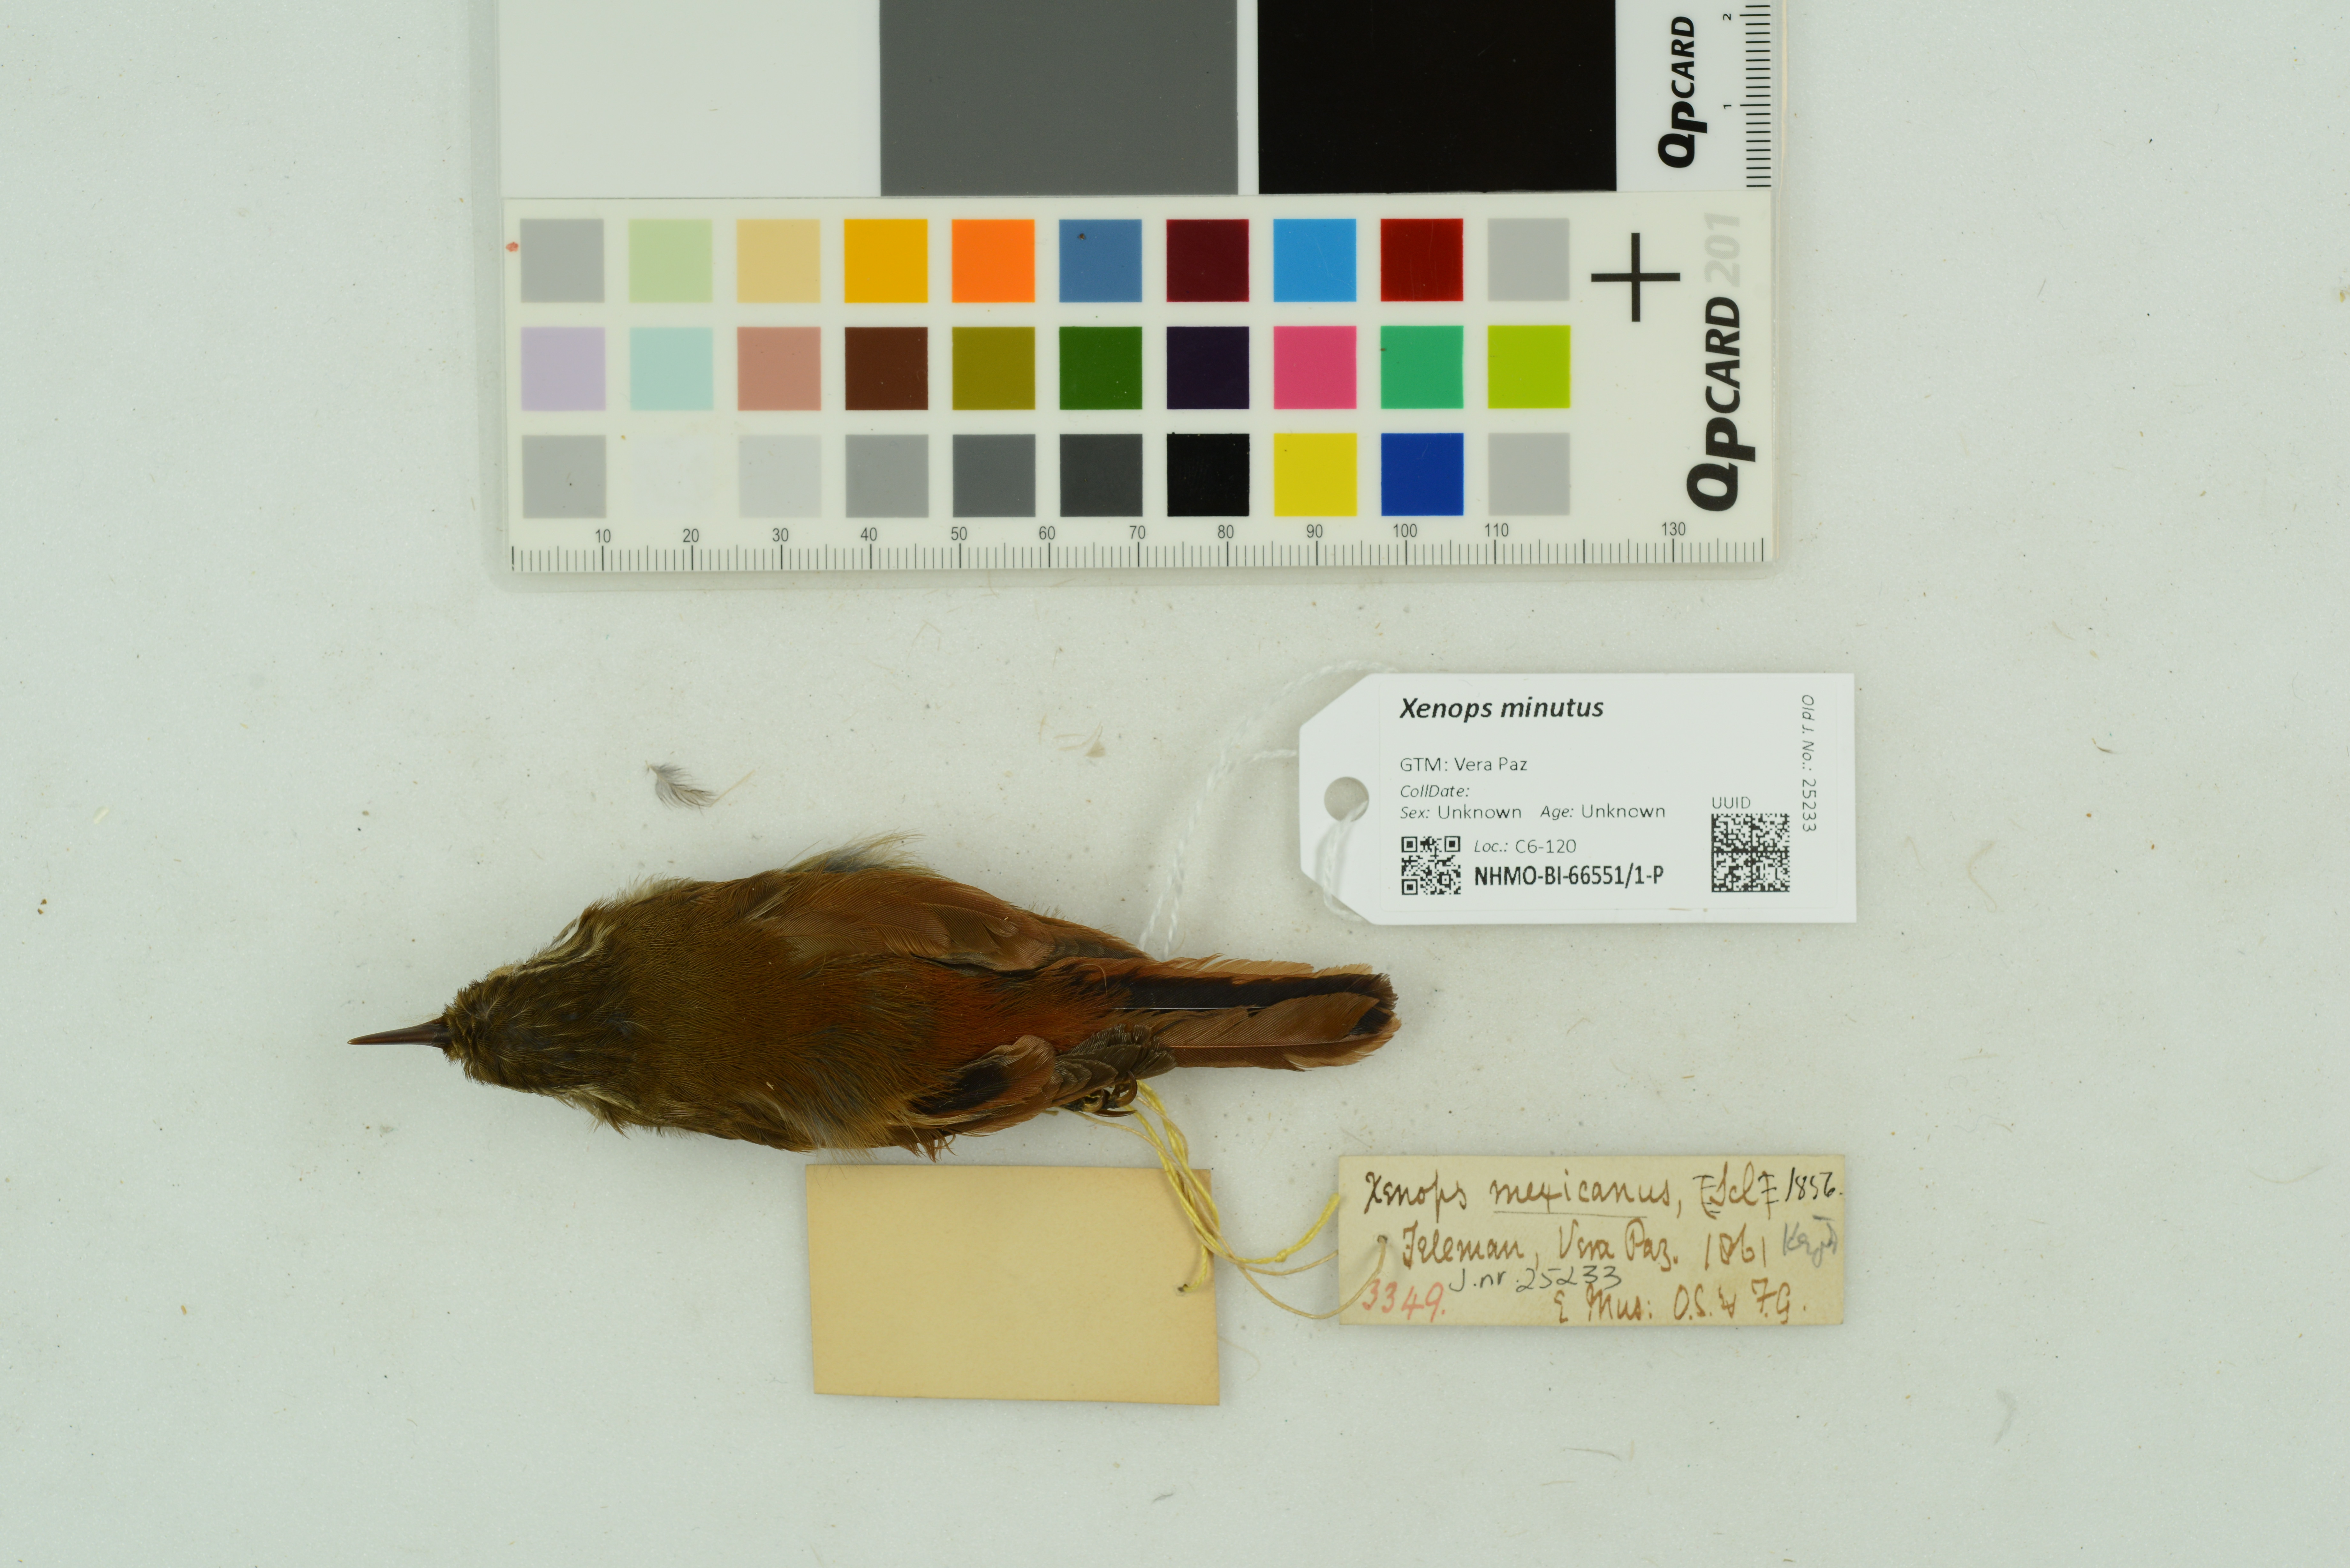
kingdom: Animalia
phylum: Chordata
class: Aves
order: Passeriformes
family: Furnariidae
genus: Xenops
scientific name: Xenops minutus
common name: Plain xenops
